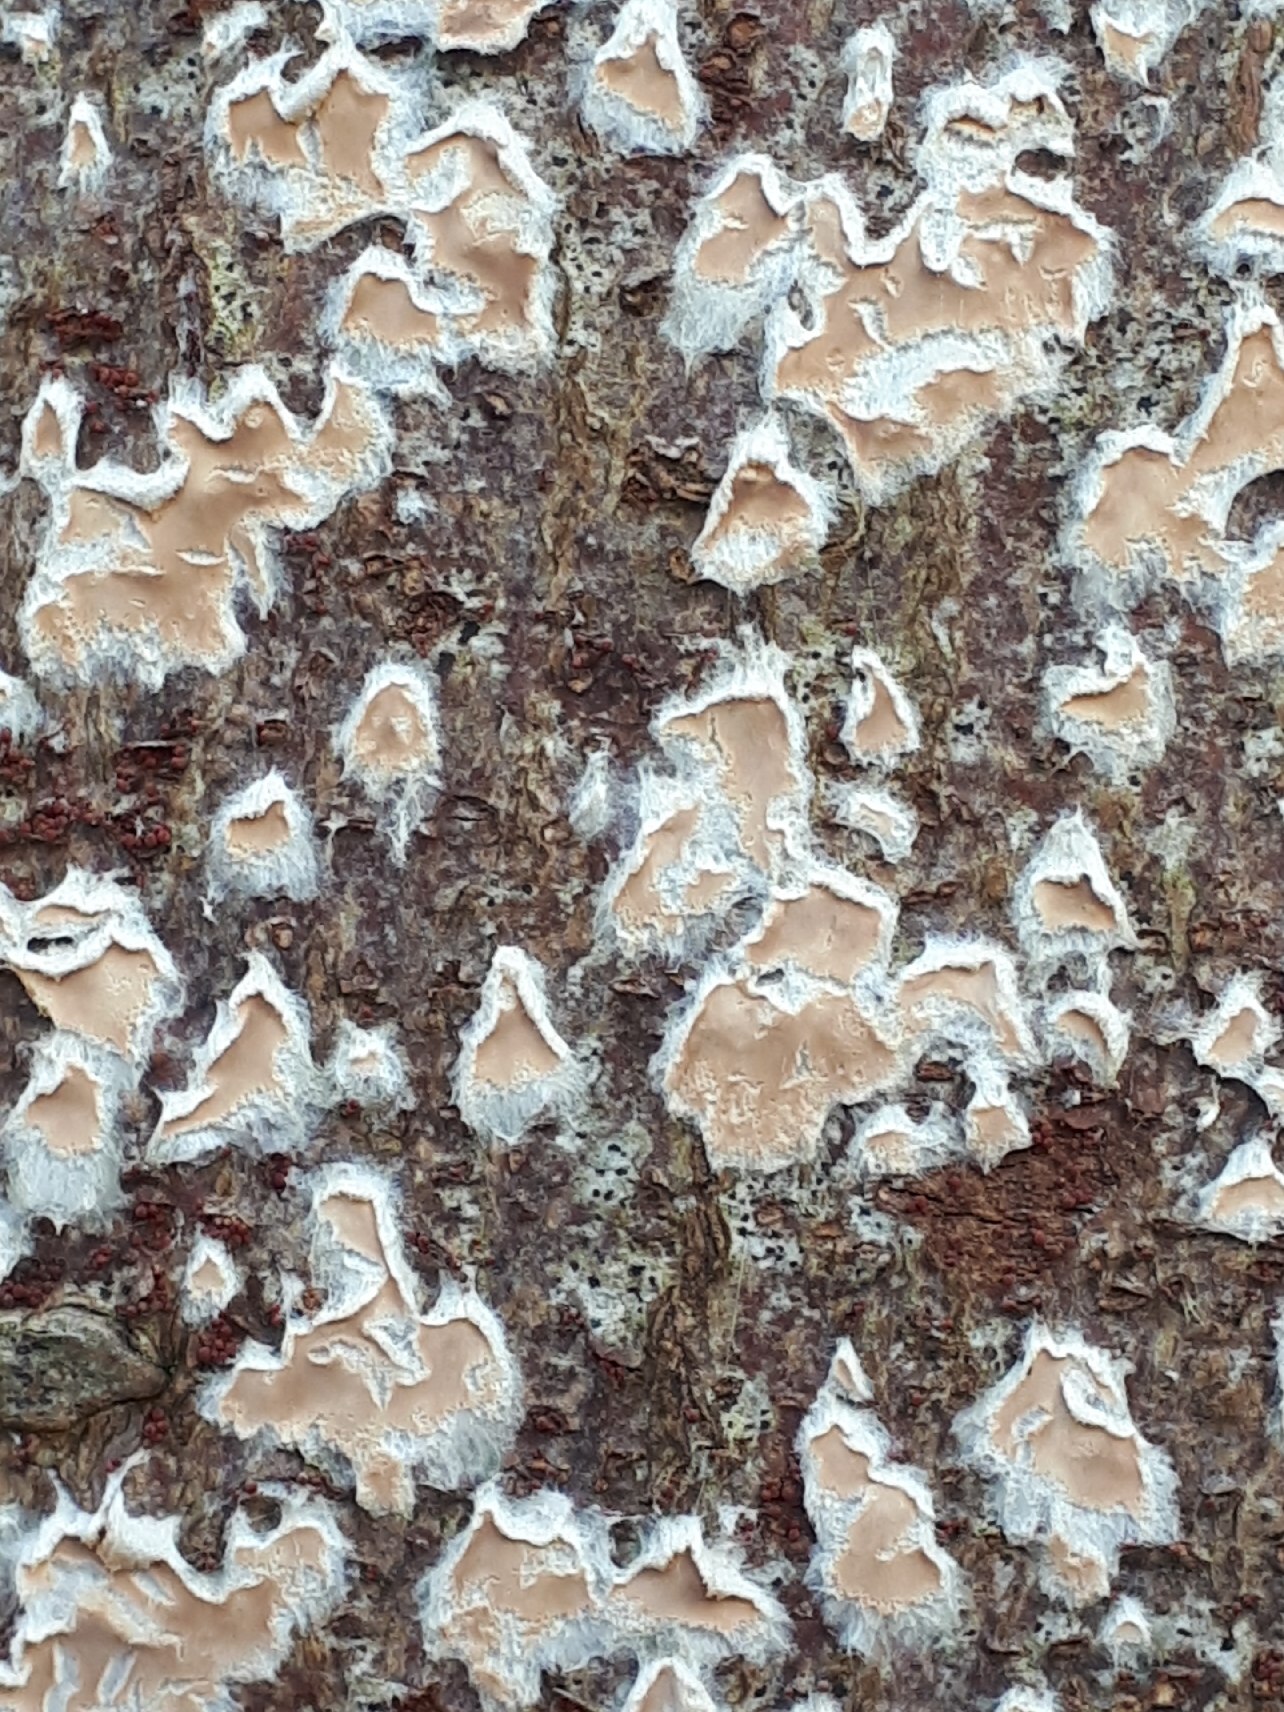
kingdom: Fungi
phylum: Basidiomycota
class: Agaricomycetes
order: Agaricales
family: Physalacriaceae
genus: Cylindrobasidium
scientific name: Cylindrobasidium evolvens
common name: sprækkehinde
